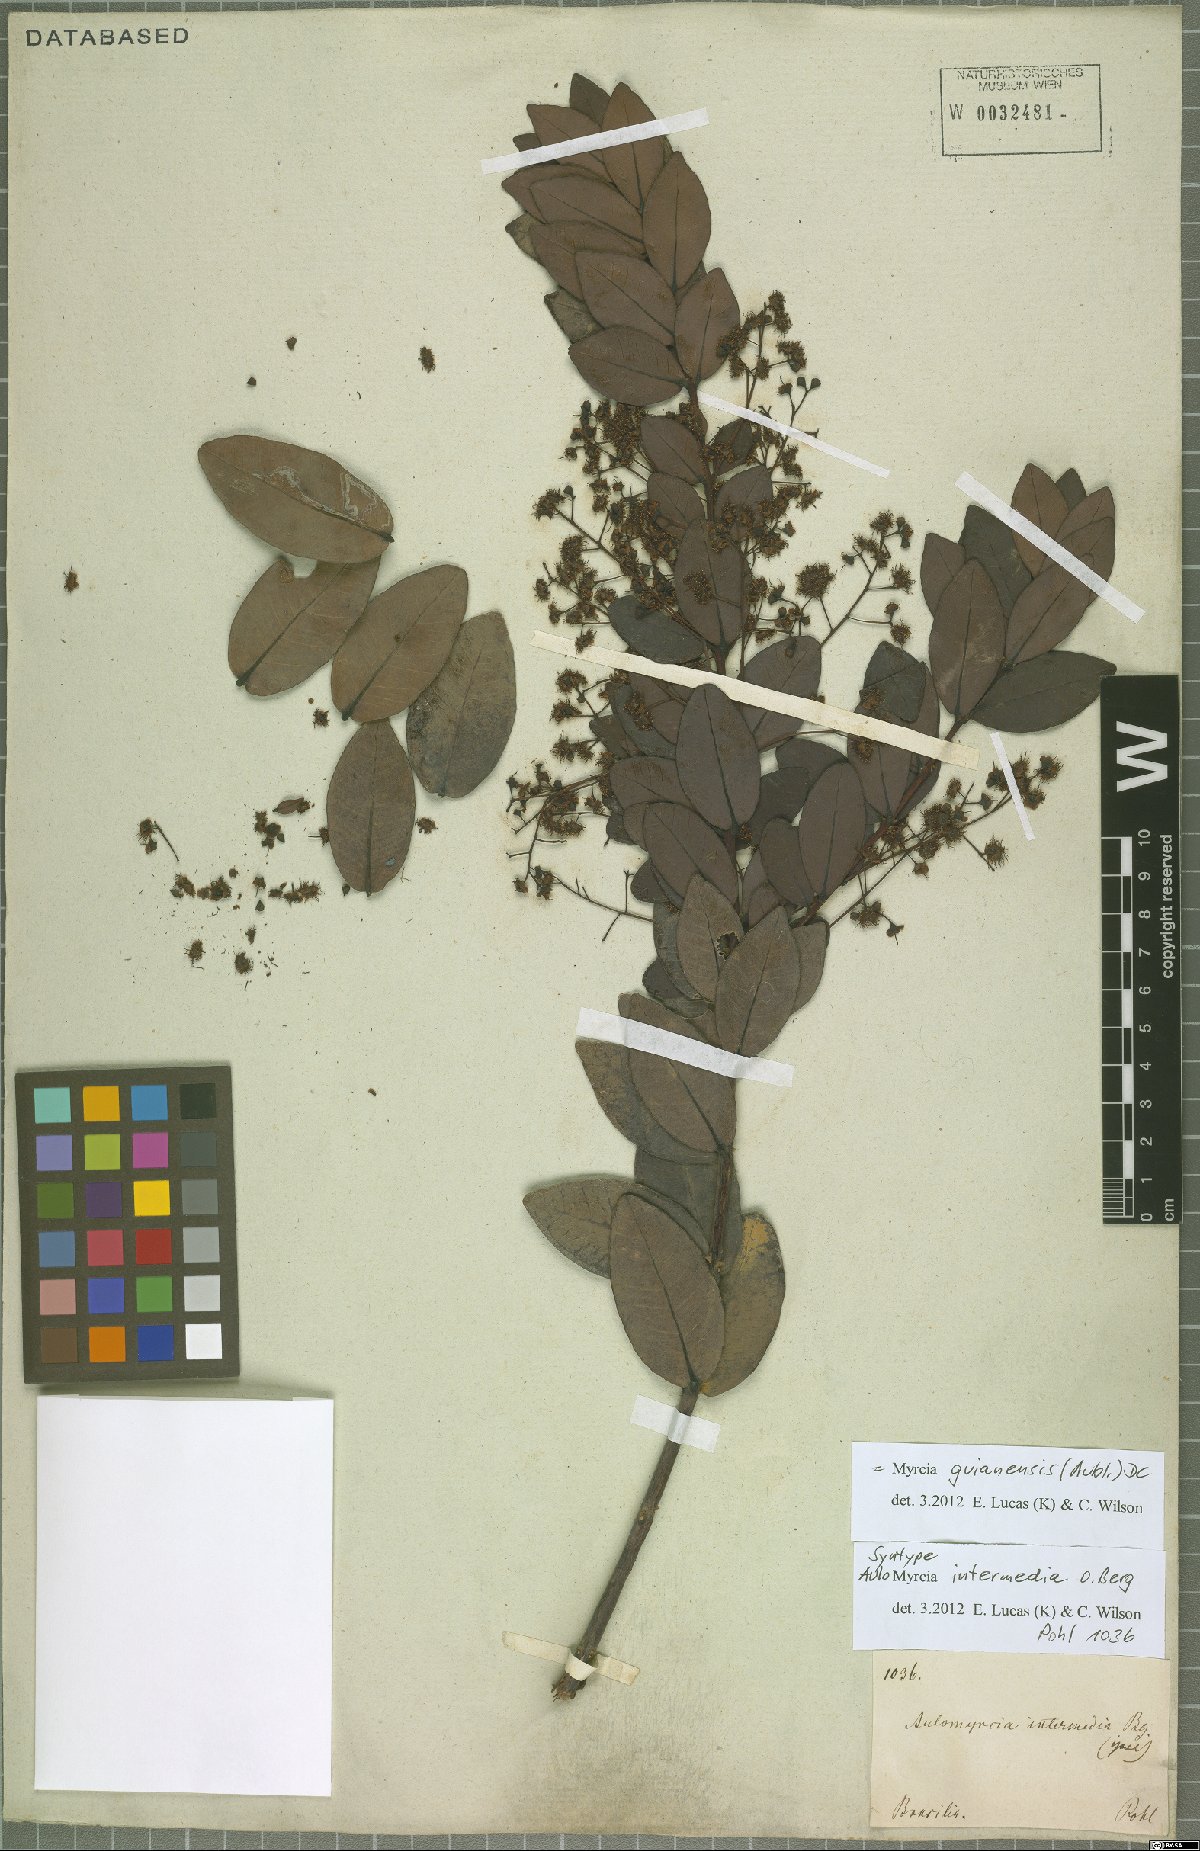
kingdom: Plantae
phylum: Tracheophyta
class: Magnoliopsida
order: Myrtales
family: Myrtaceae
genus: Myrcia
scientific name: Myrcia guianensis
